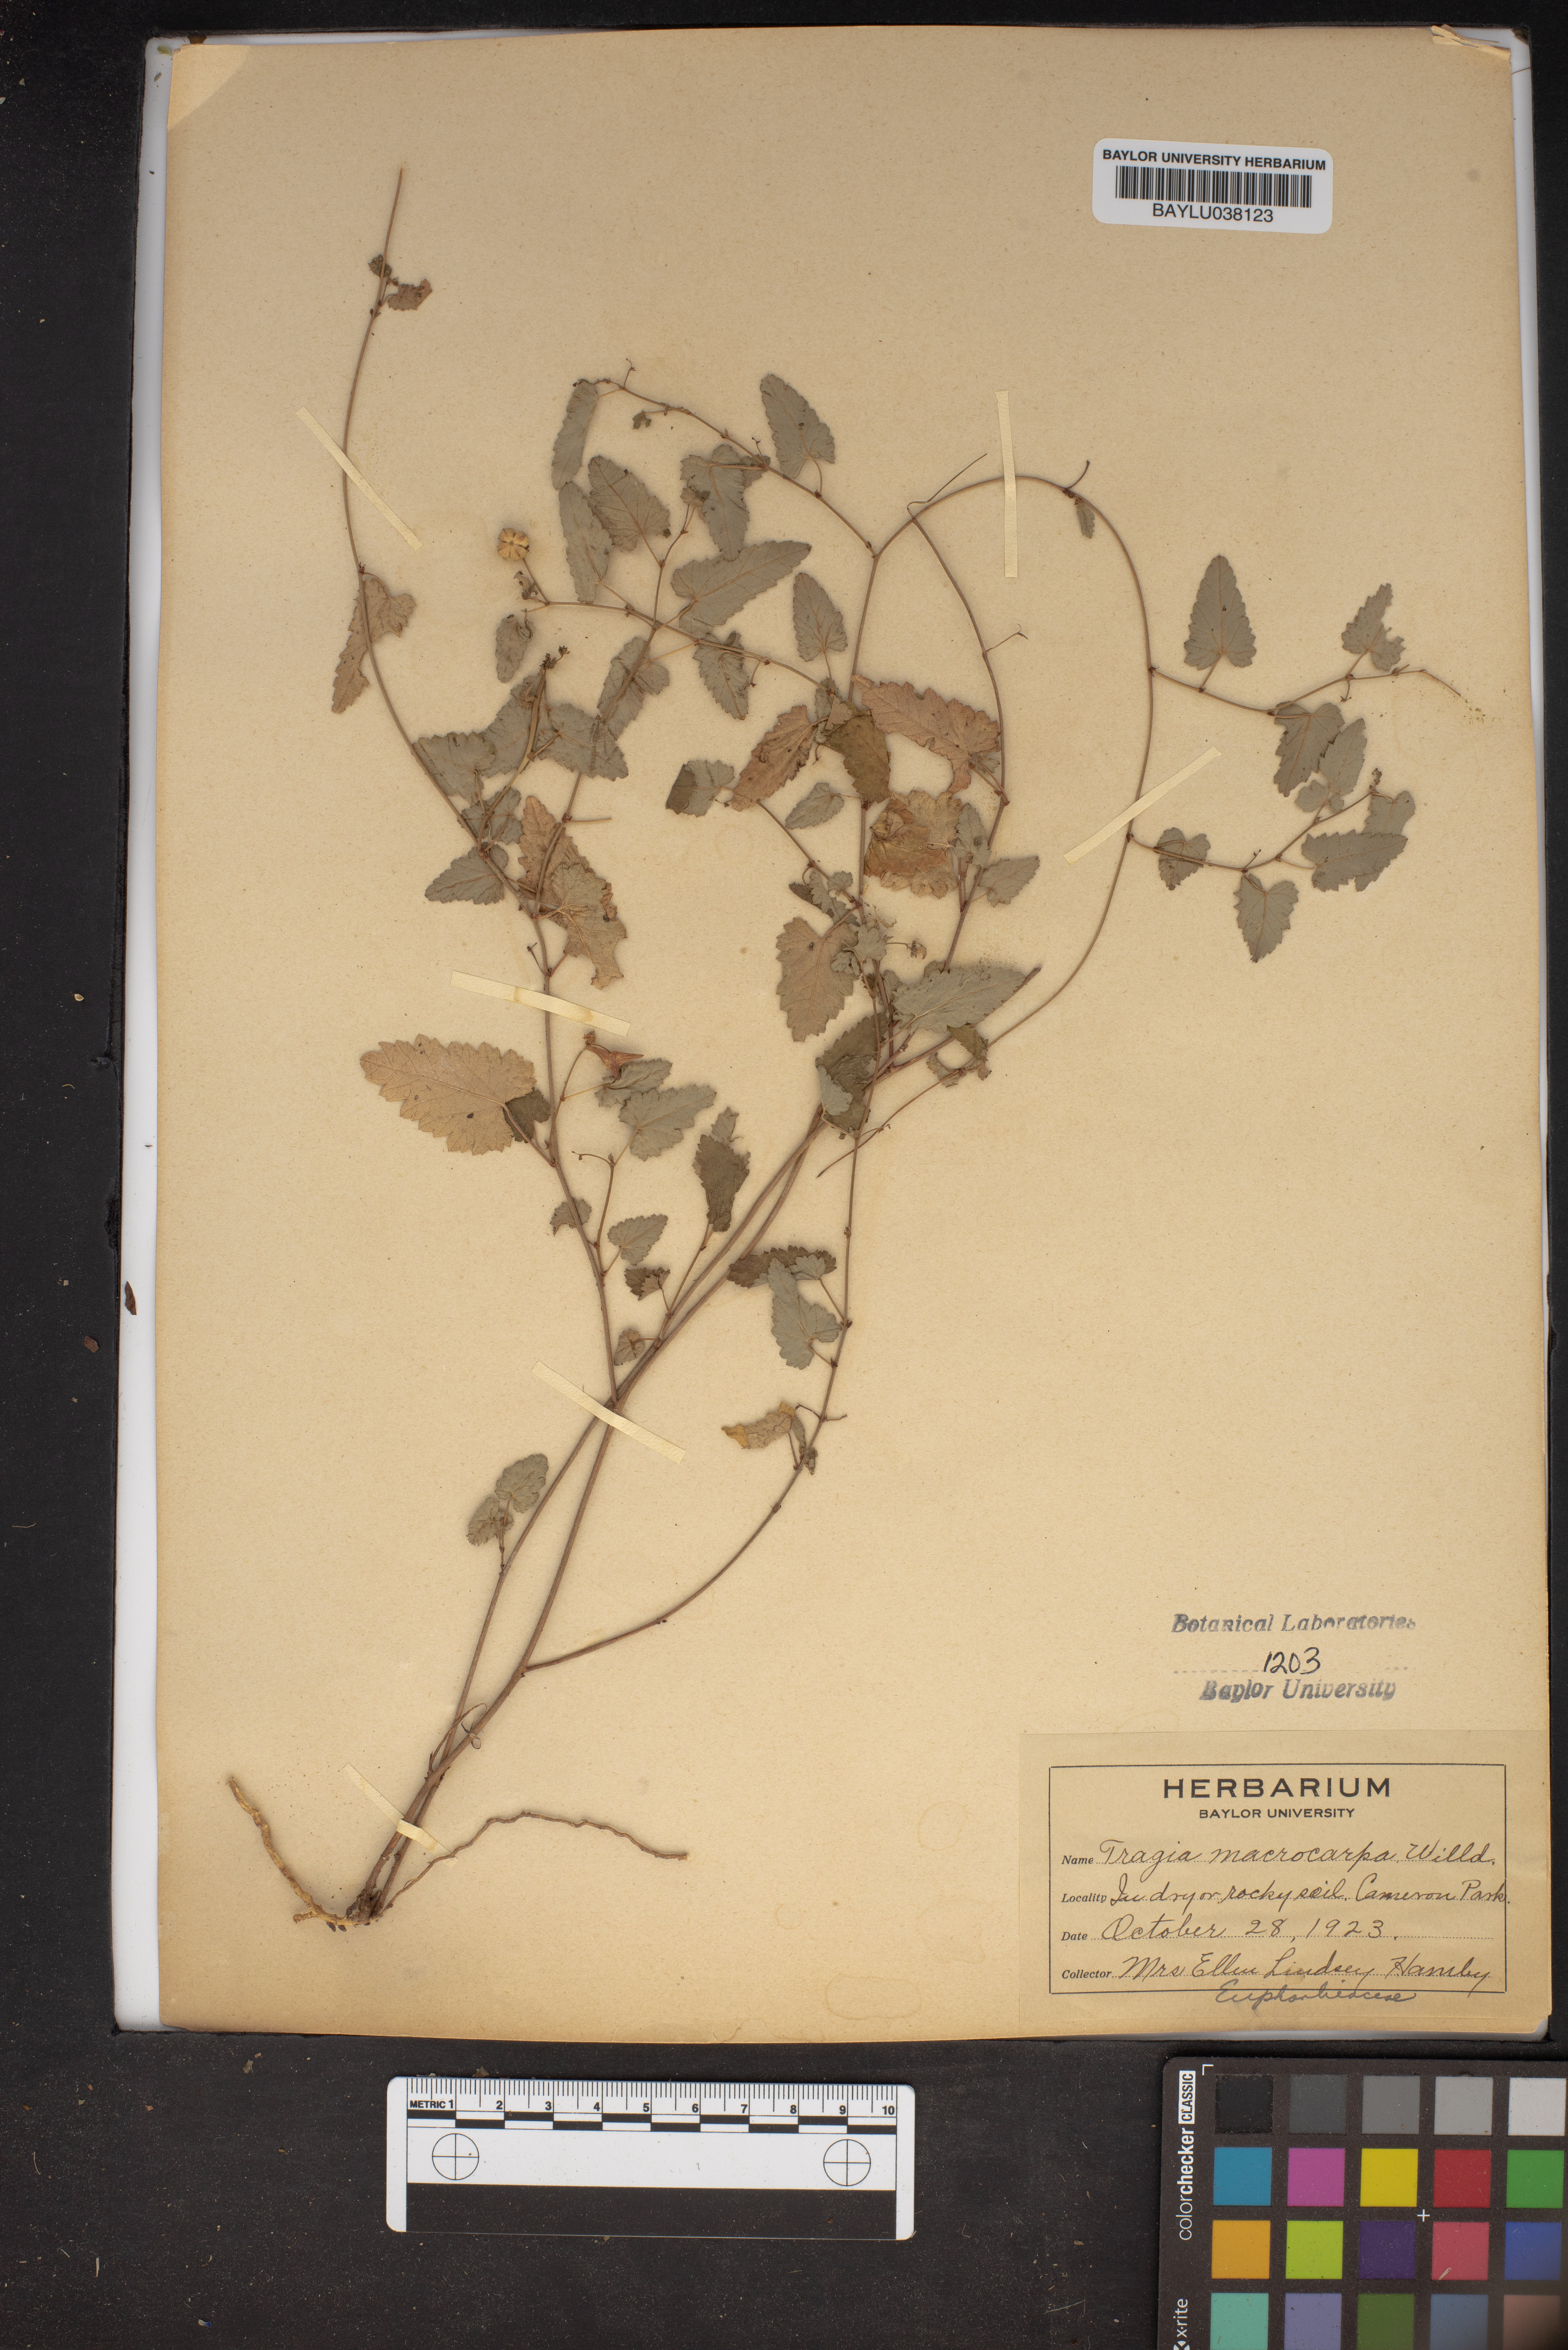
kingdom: Plantae
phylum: Tracheophyta
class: Magnoliopsida
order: Malpighiales
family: Euphorbiaceae
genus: Tragia
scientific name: Tragia cordata
